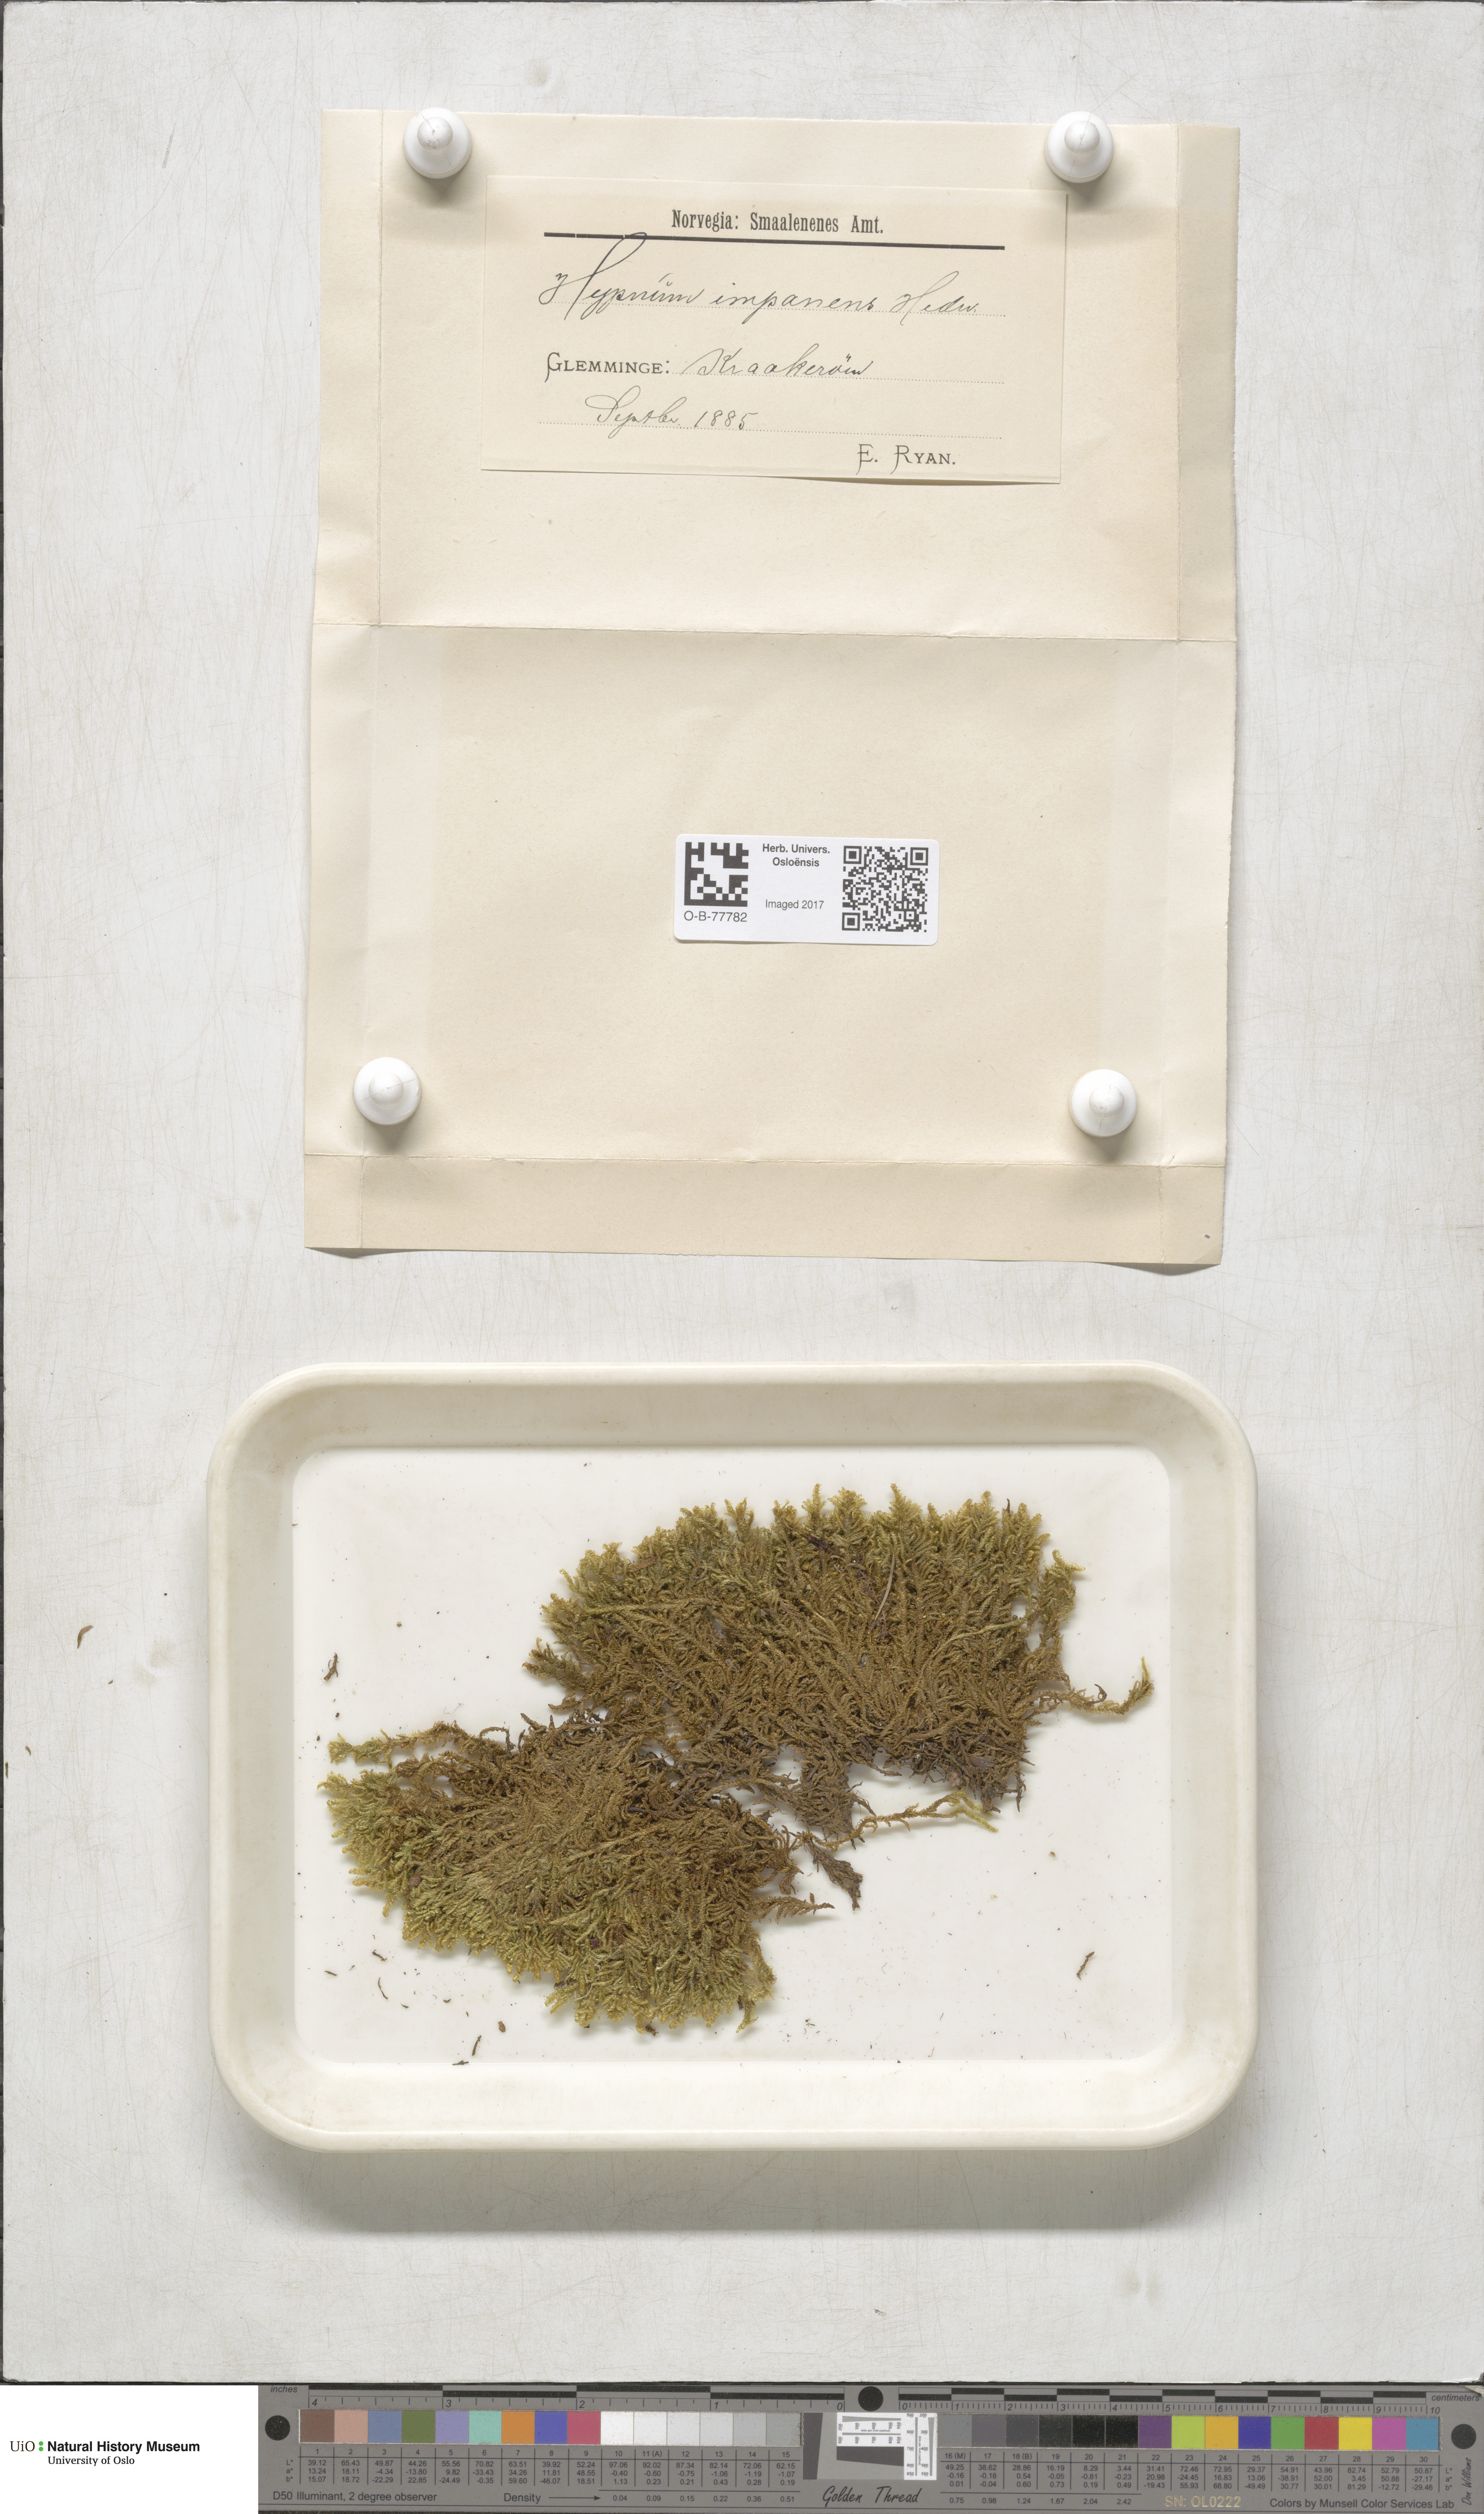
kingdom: Plantae
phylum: Bryophyta
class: Bryopsida
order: Hypnales
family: Callicladiaceae
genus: Callicladium
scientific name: Callicladium imponens
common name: Brocade moss
